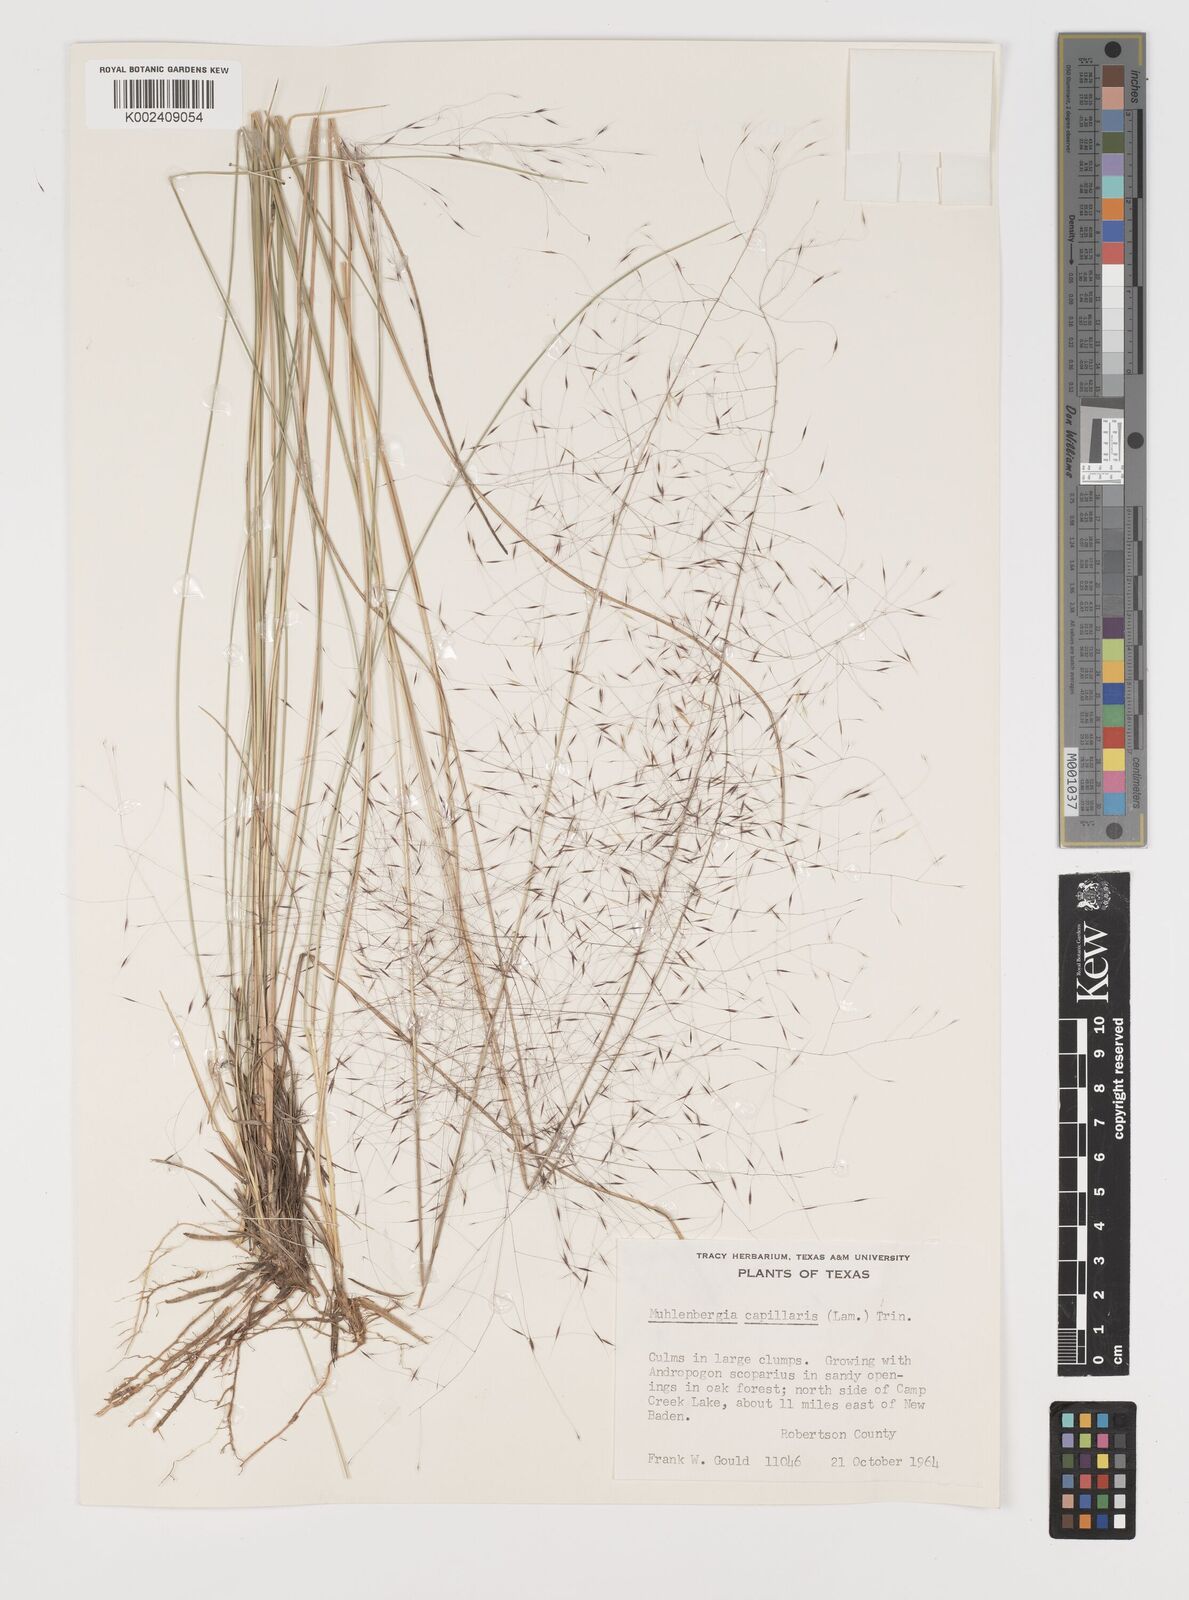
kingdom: Plantae
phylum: Tracheophyta
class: Liliopsida
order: Poales
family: Poaceae
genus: Muhlenbergia
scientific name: Muhlenbergia capillaris
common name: Purple grass
